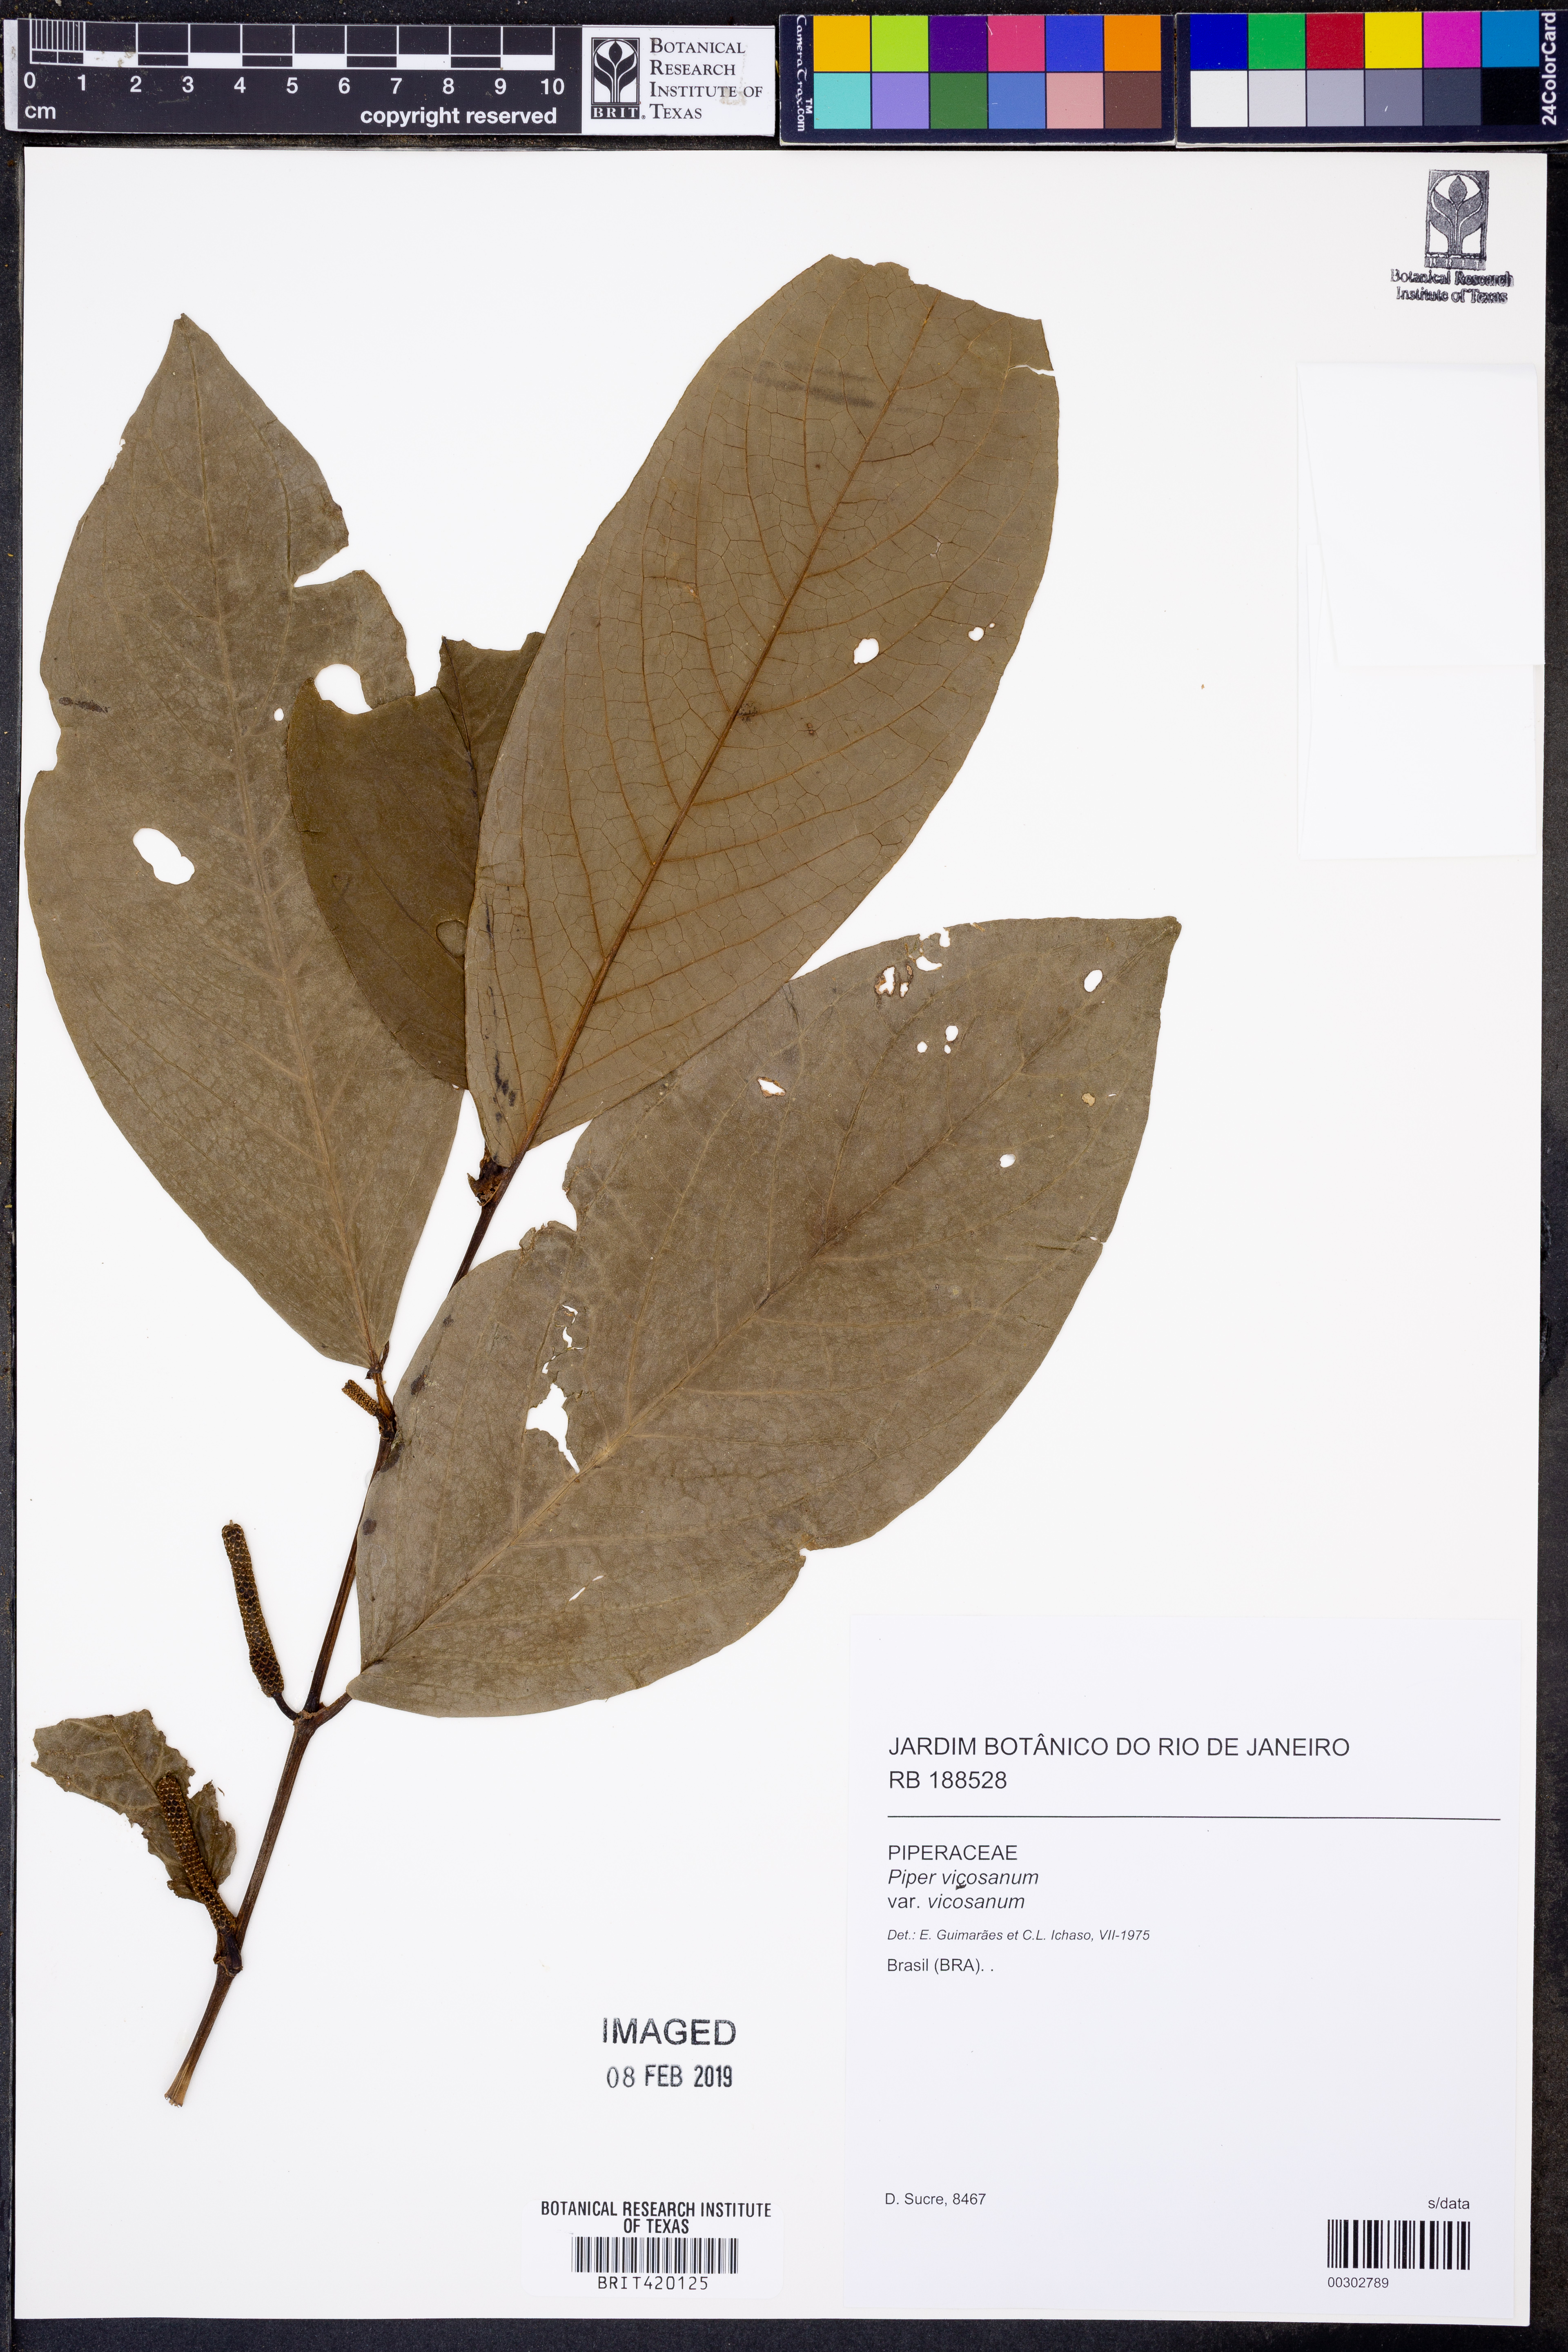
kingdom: Plantae
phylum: Tracheophyta
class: Magnoliopsida
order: Piperales
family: Piperaceae
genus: Piper
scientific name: Piper vicosanum
